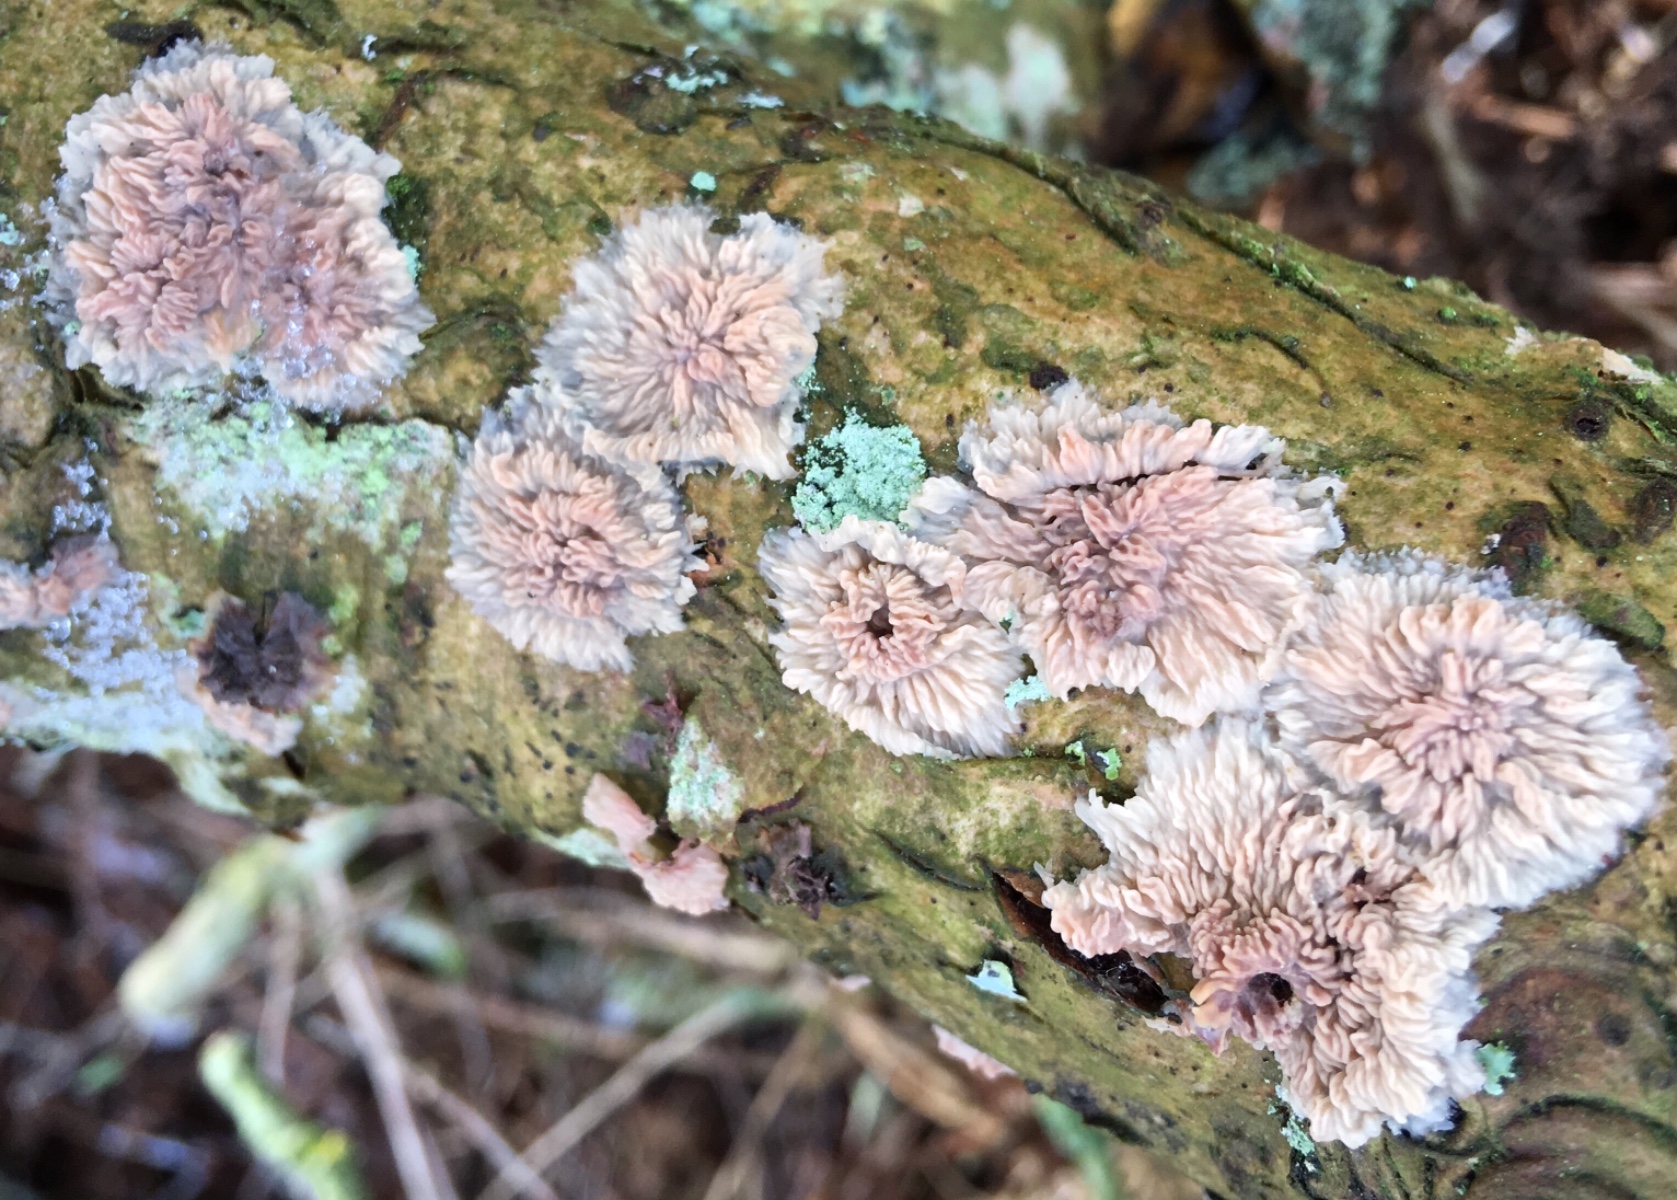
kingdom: Fungi
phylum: Basidiomycota
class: Agaricomycetes
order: Polyporales
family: Meruliaceae
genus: Phlebia
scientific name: Phlebia radiata
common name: stråle-åresvamp
